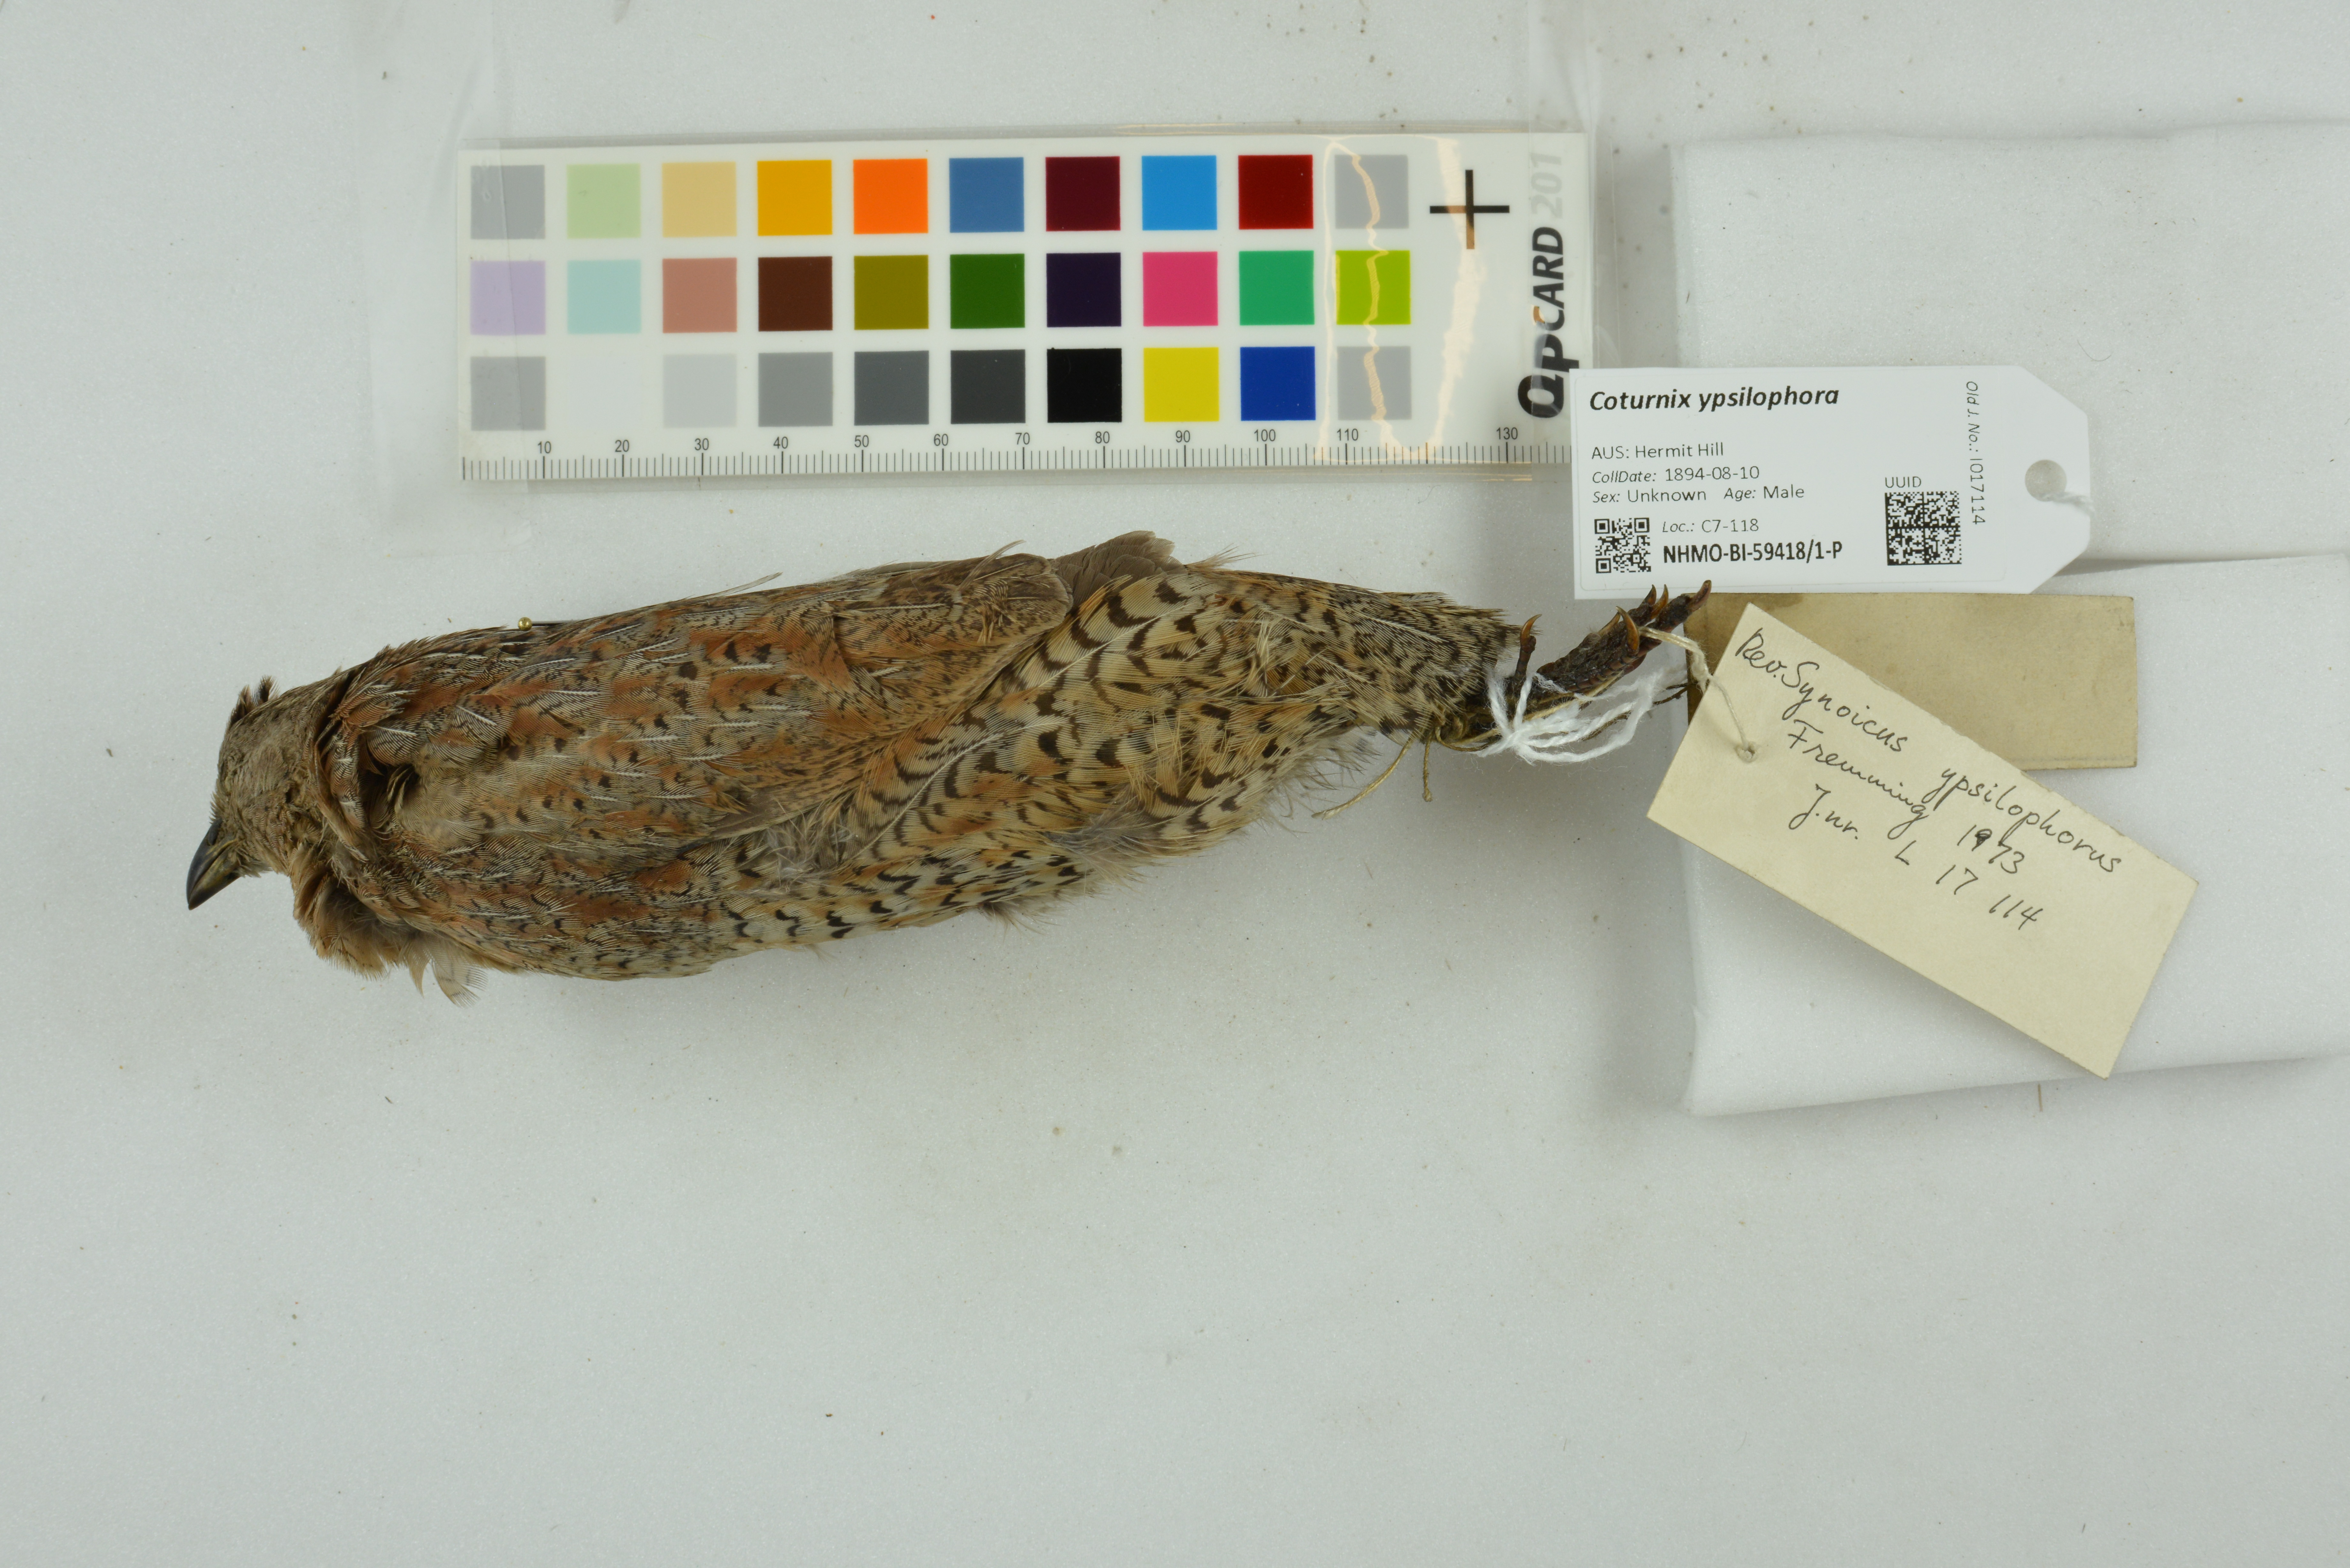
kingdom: Animalia
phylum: Chordata
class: Aves
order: Galliformes
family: Phasianidae
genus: Synoicus
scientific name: Synoicus ypsilophorus
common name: Brown quail
